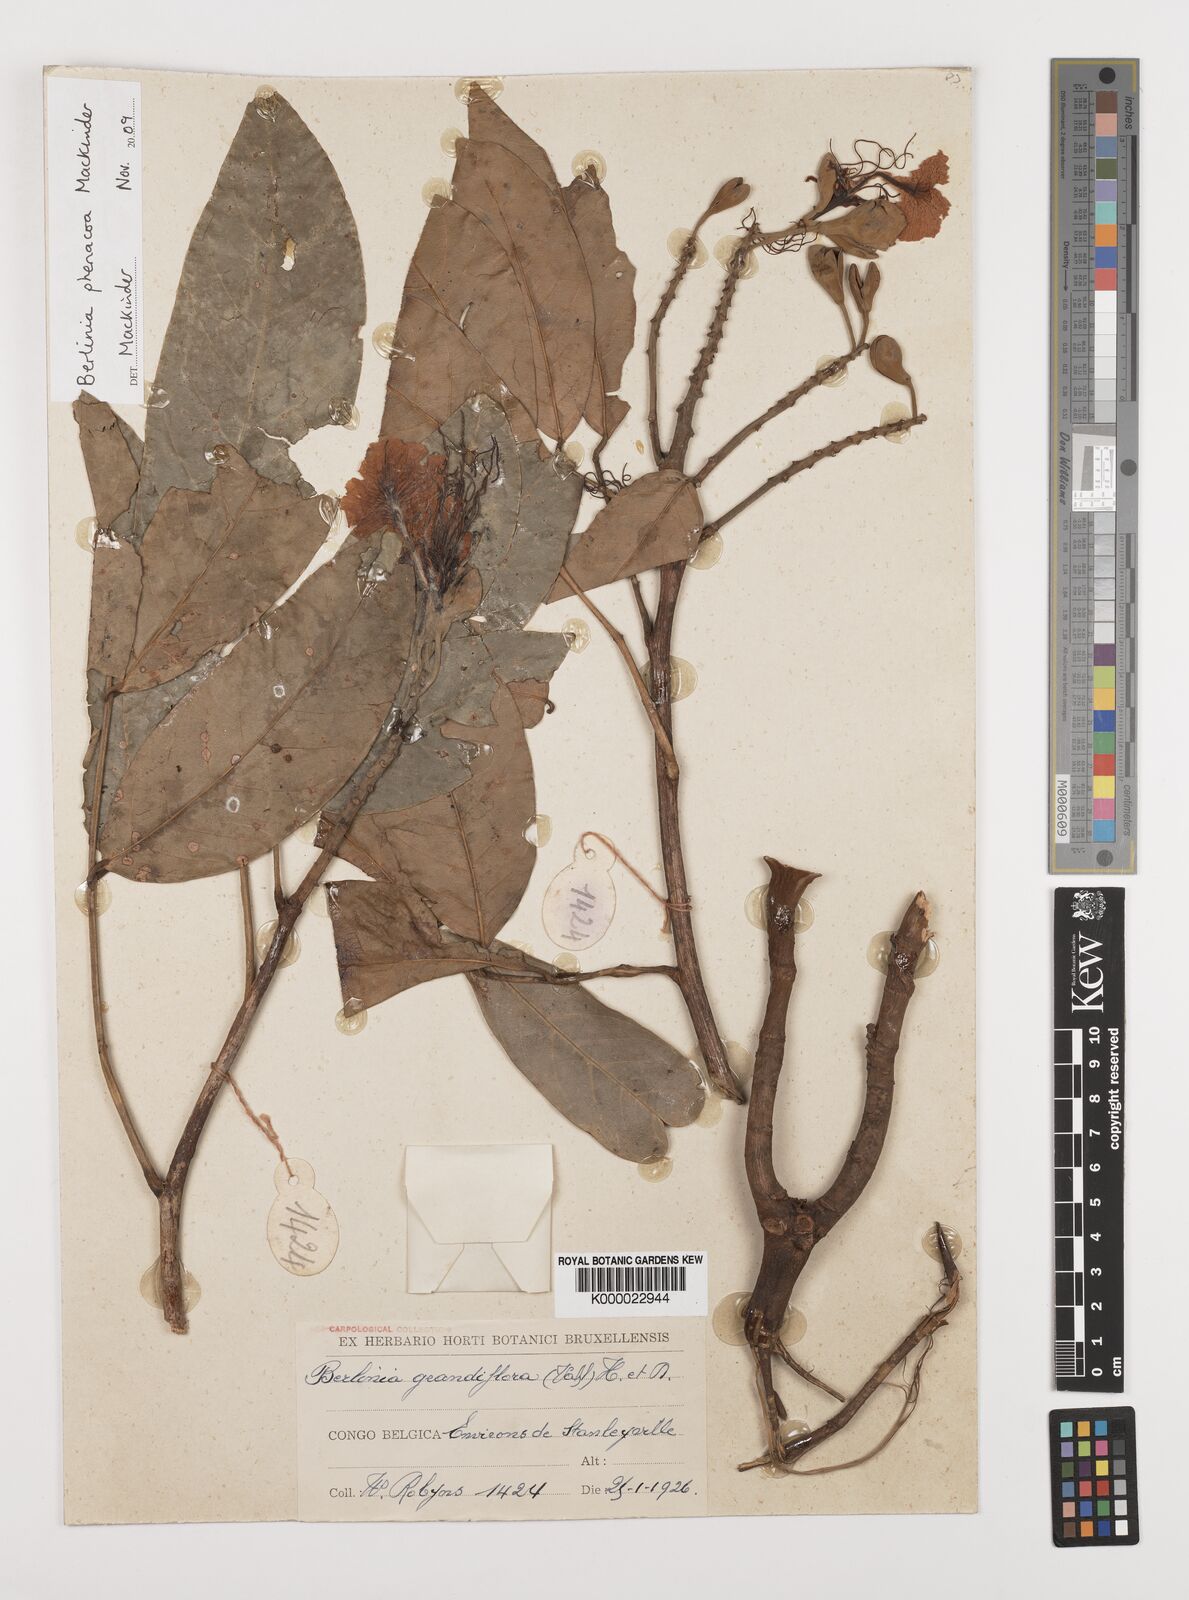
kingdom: Plantae
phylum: Tracheophyta
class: Magnoliopsida
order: Fabales
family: Fabaceae
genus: Berlinia
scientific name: Berlinia phenacoa
